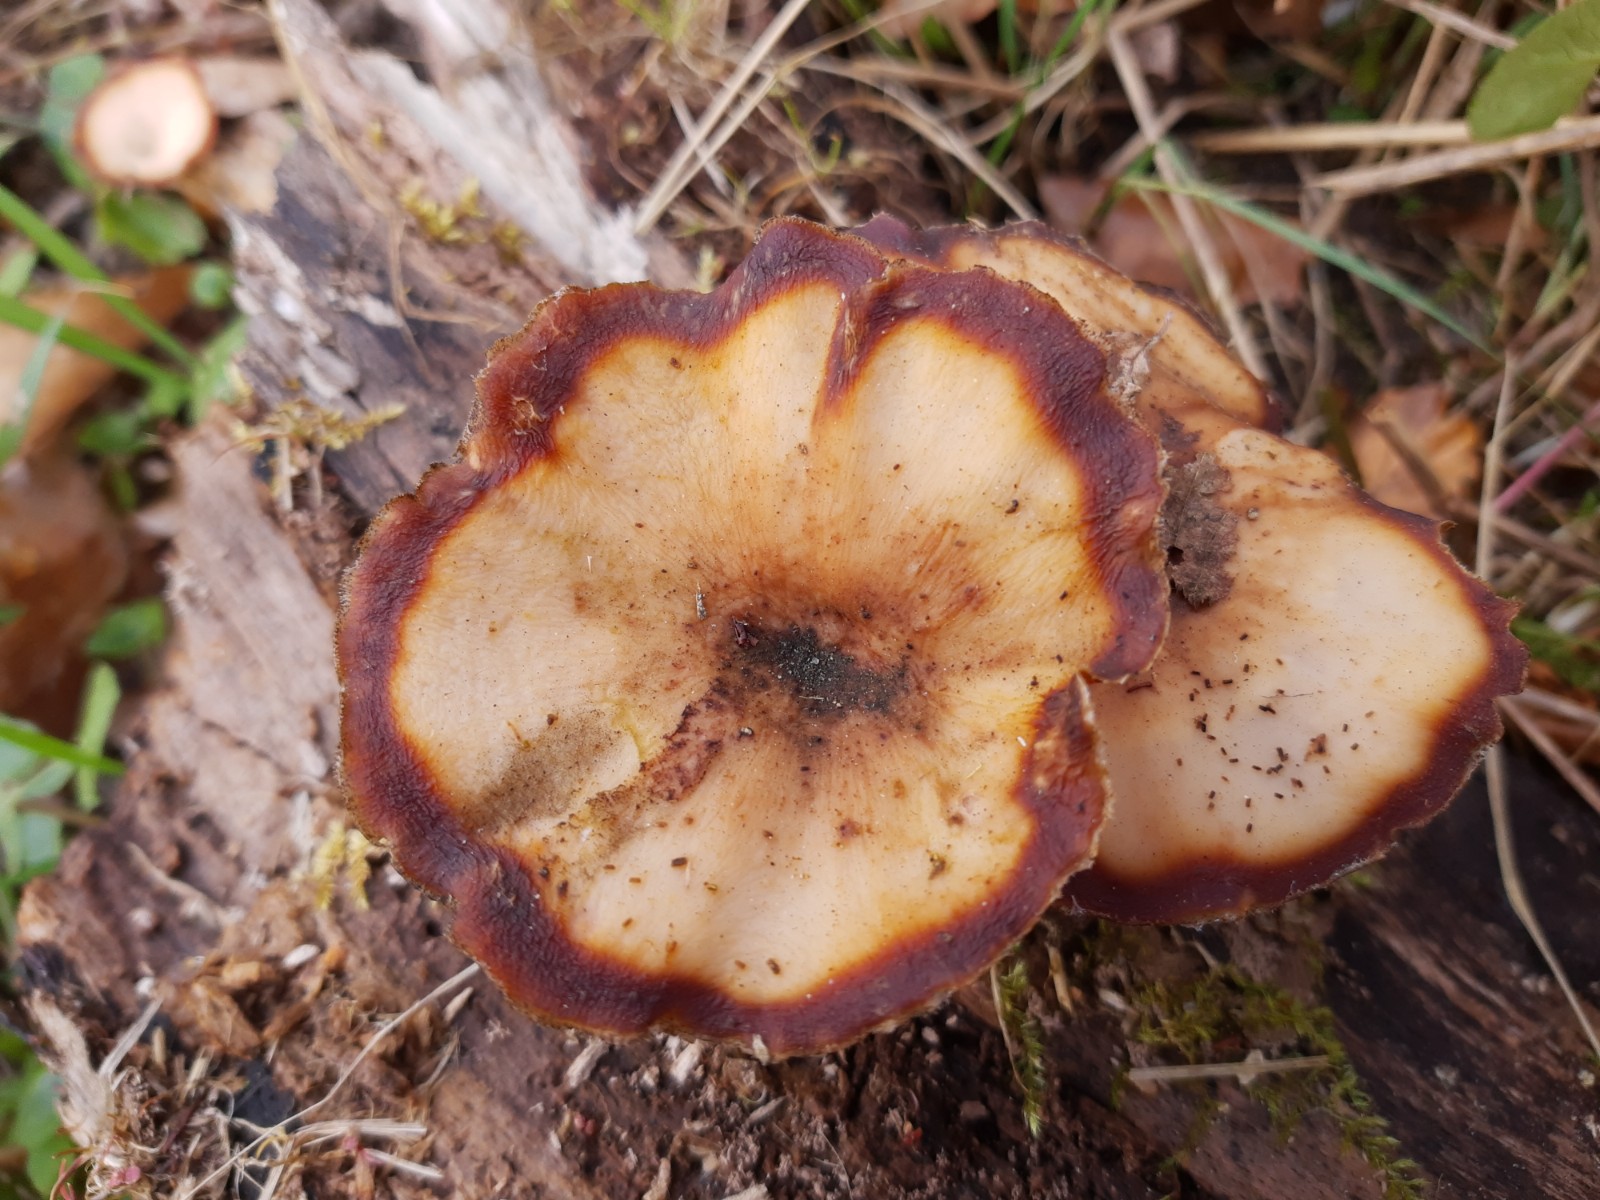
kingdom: Fungi
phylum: Basidiomycota
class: Agaricomycetes
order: Polyporales
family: Polyporaceae
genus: Lentinus
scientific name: Lentinus brumalis
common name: vinter-stilkporesvamp
